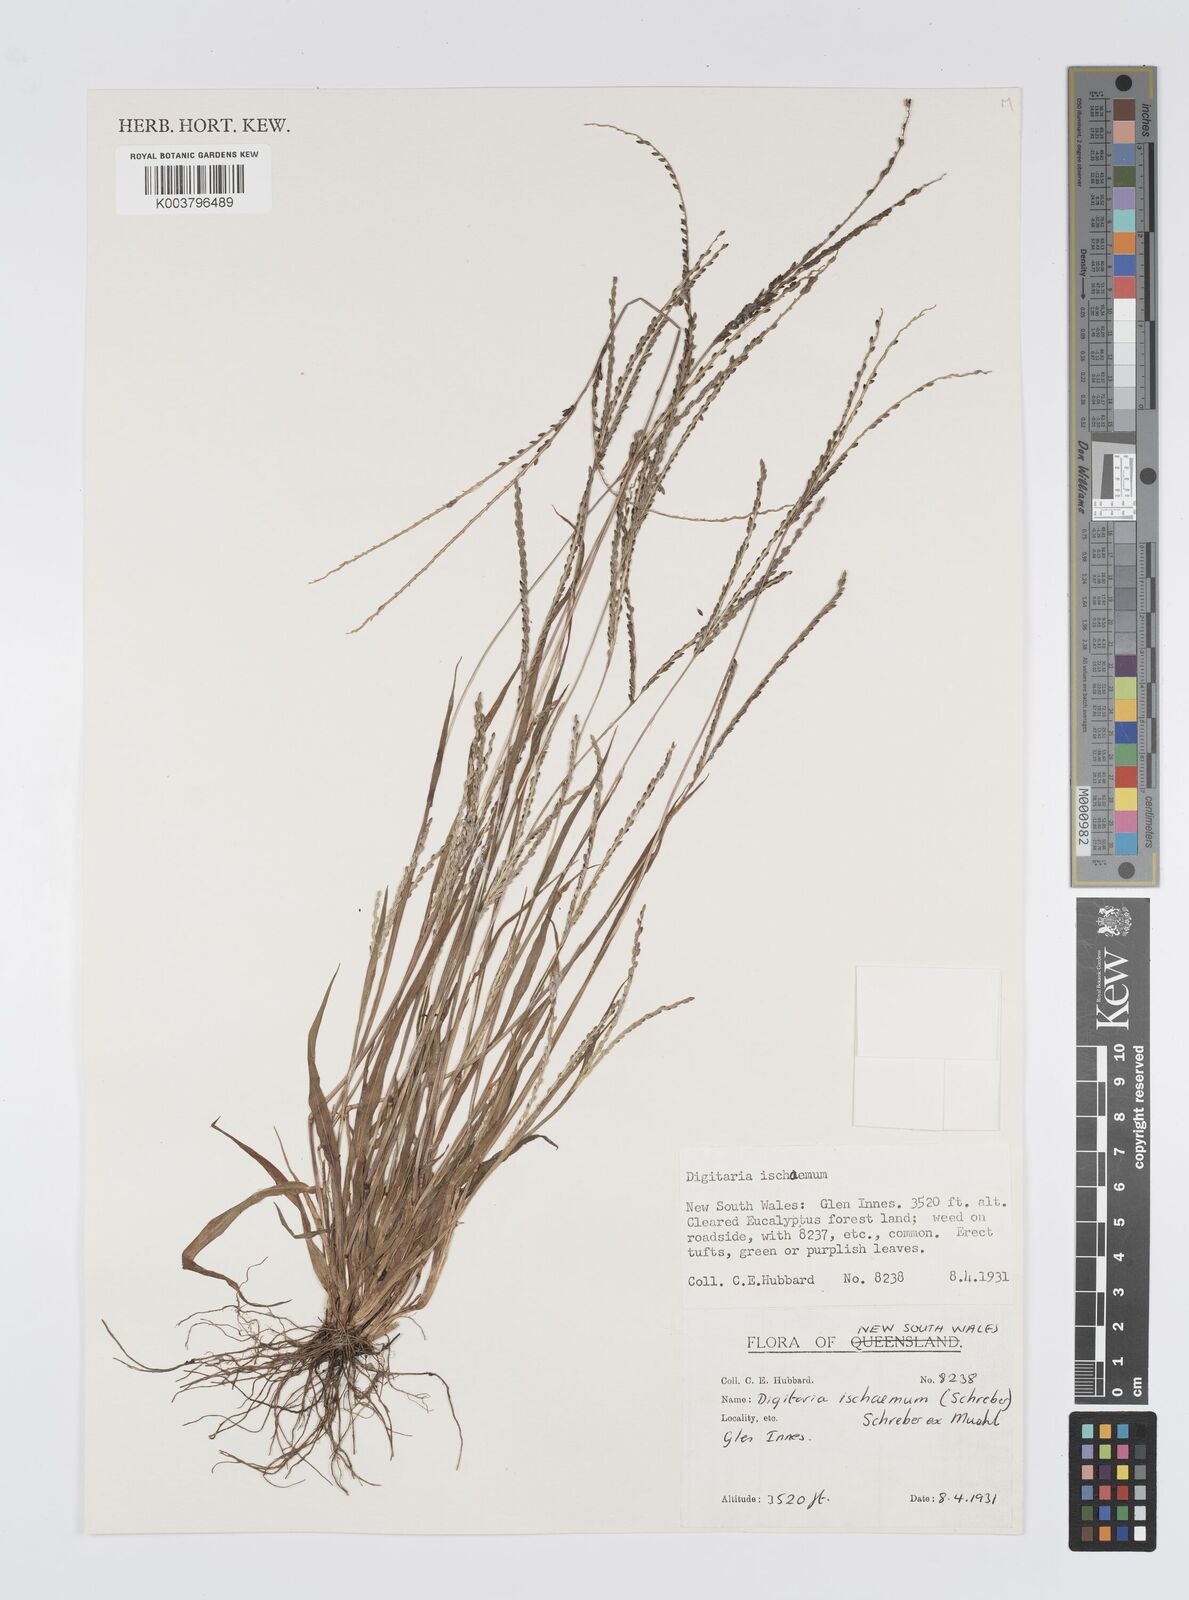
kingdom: Plantae
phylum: Tracheophyta
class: Liliopsida
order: Poales
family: Poaceae
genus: Digitaria
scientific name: Digitaria ischaemum
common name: Smooth crabgrass
